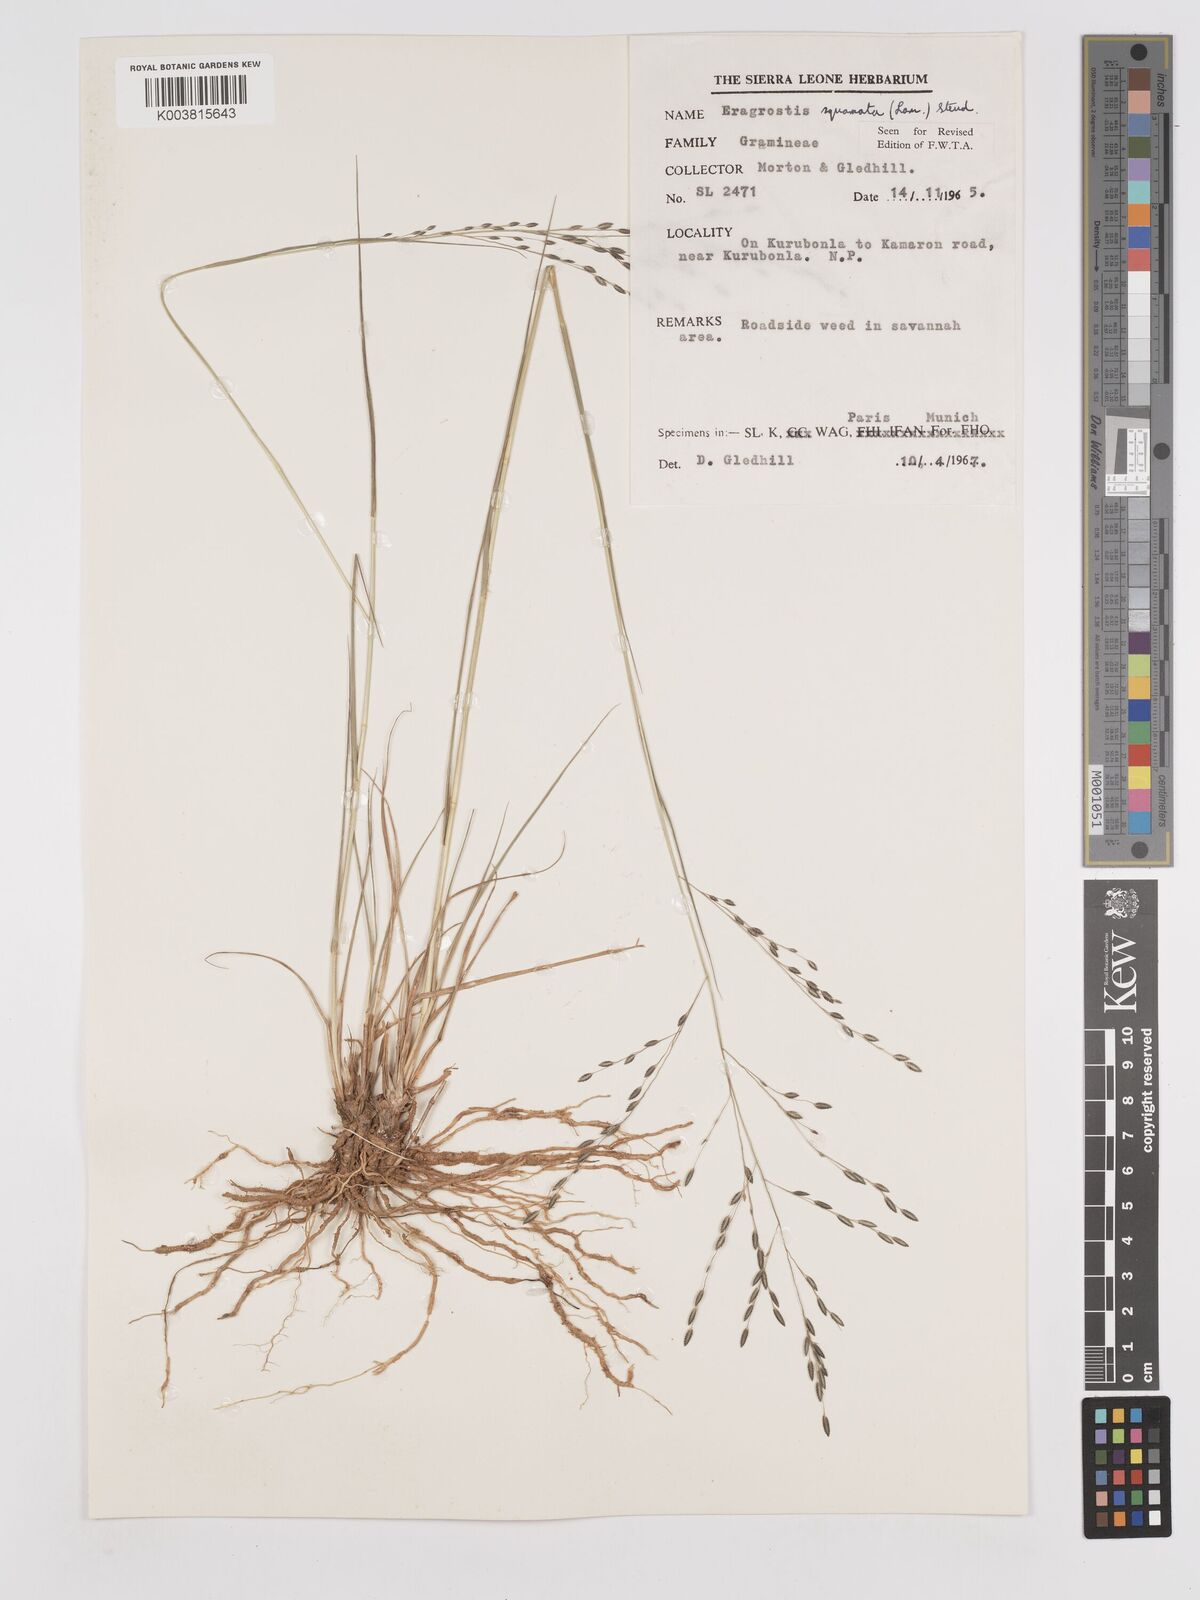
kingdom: Plantae
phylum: Tracheophyta
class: Liliopsida
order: Poales
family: Poaceae
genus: Eragrostis
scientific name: Eragrostis squamata
